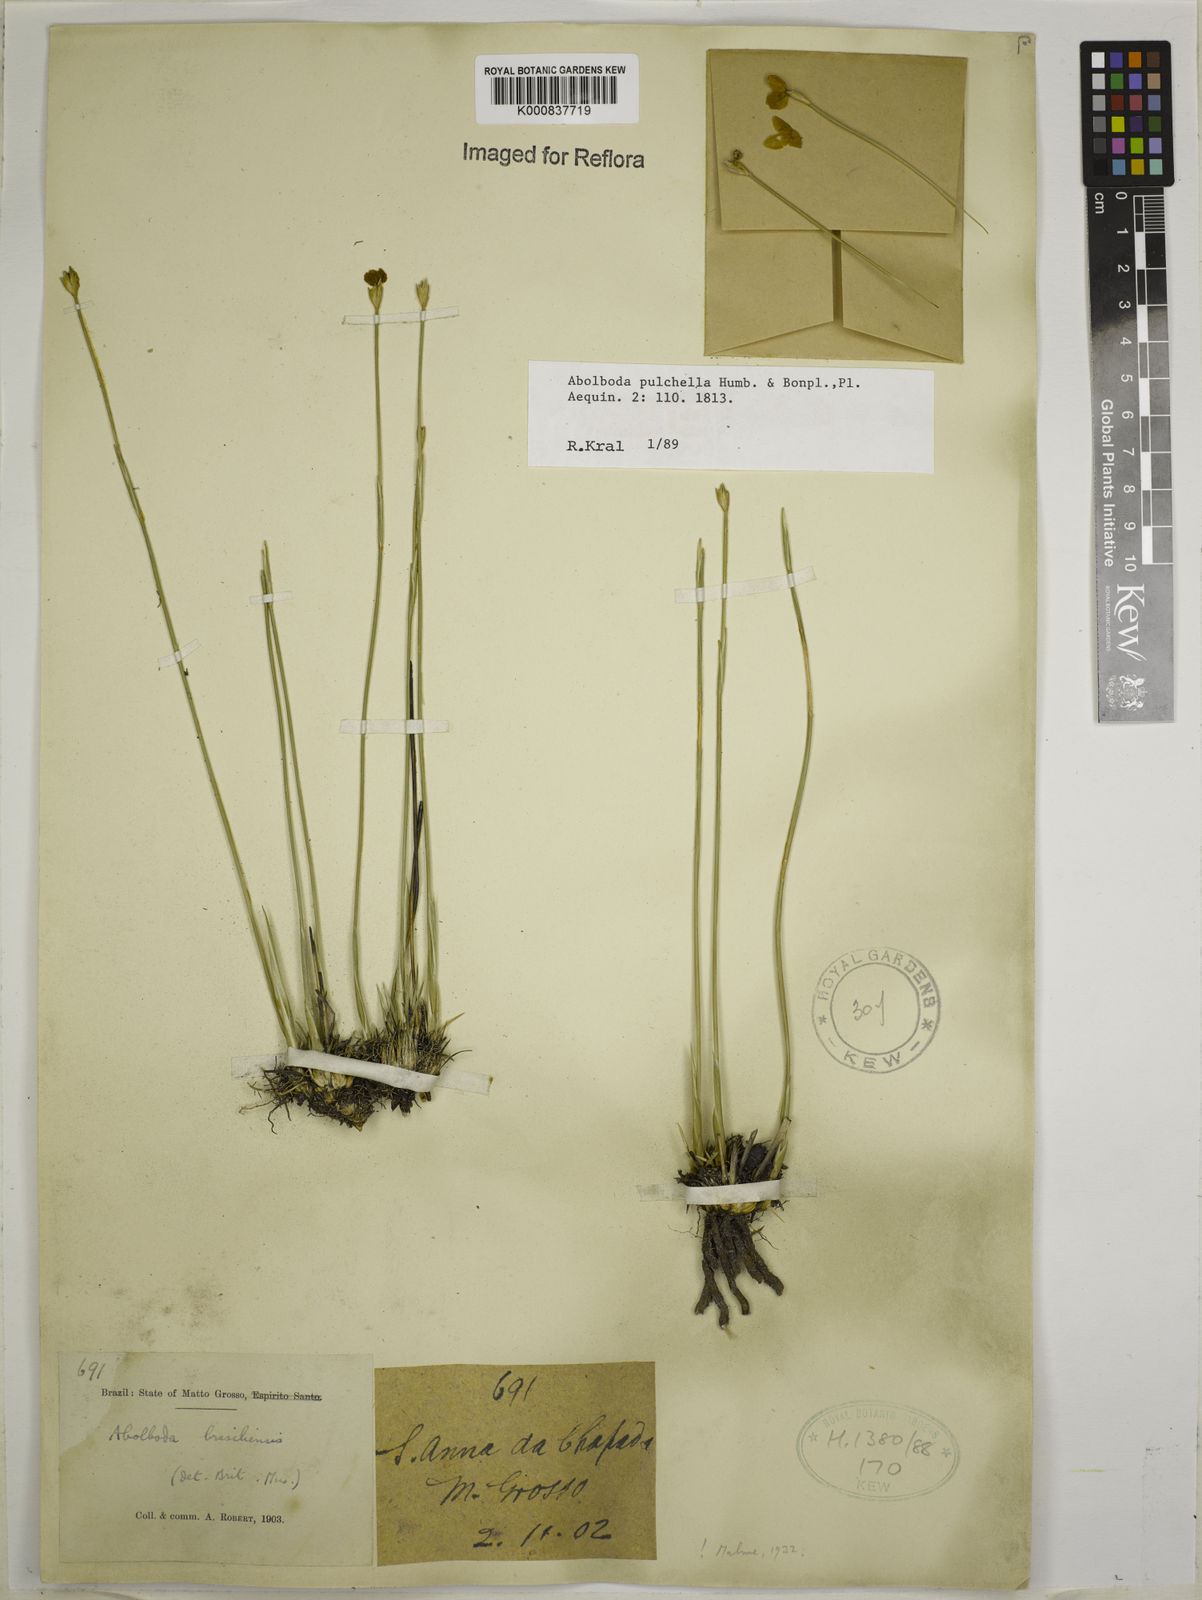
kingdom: Plantae
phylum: Tracheophyta
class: Liliopsida
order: Poales
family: Xyridaceae
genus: Abolboda
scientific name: Abolboda pulchella
